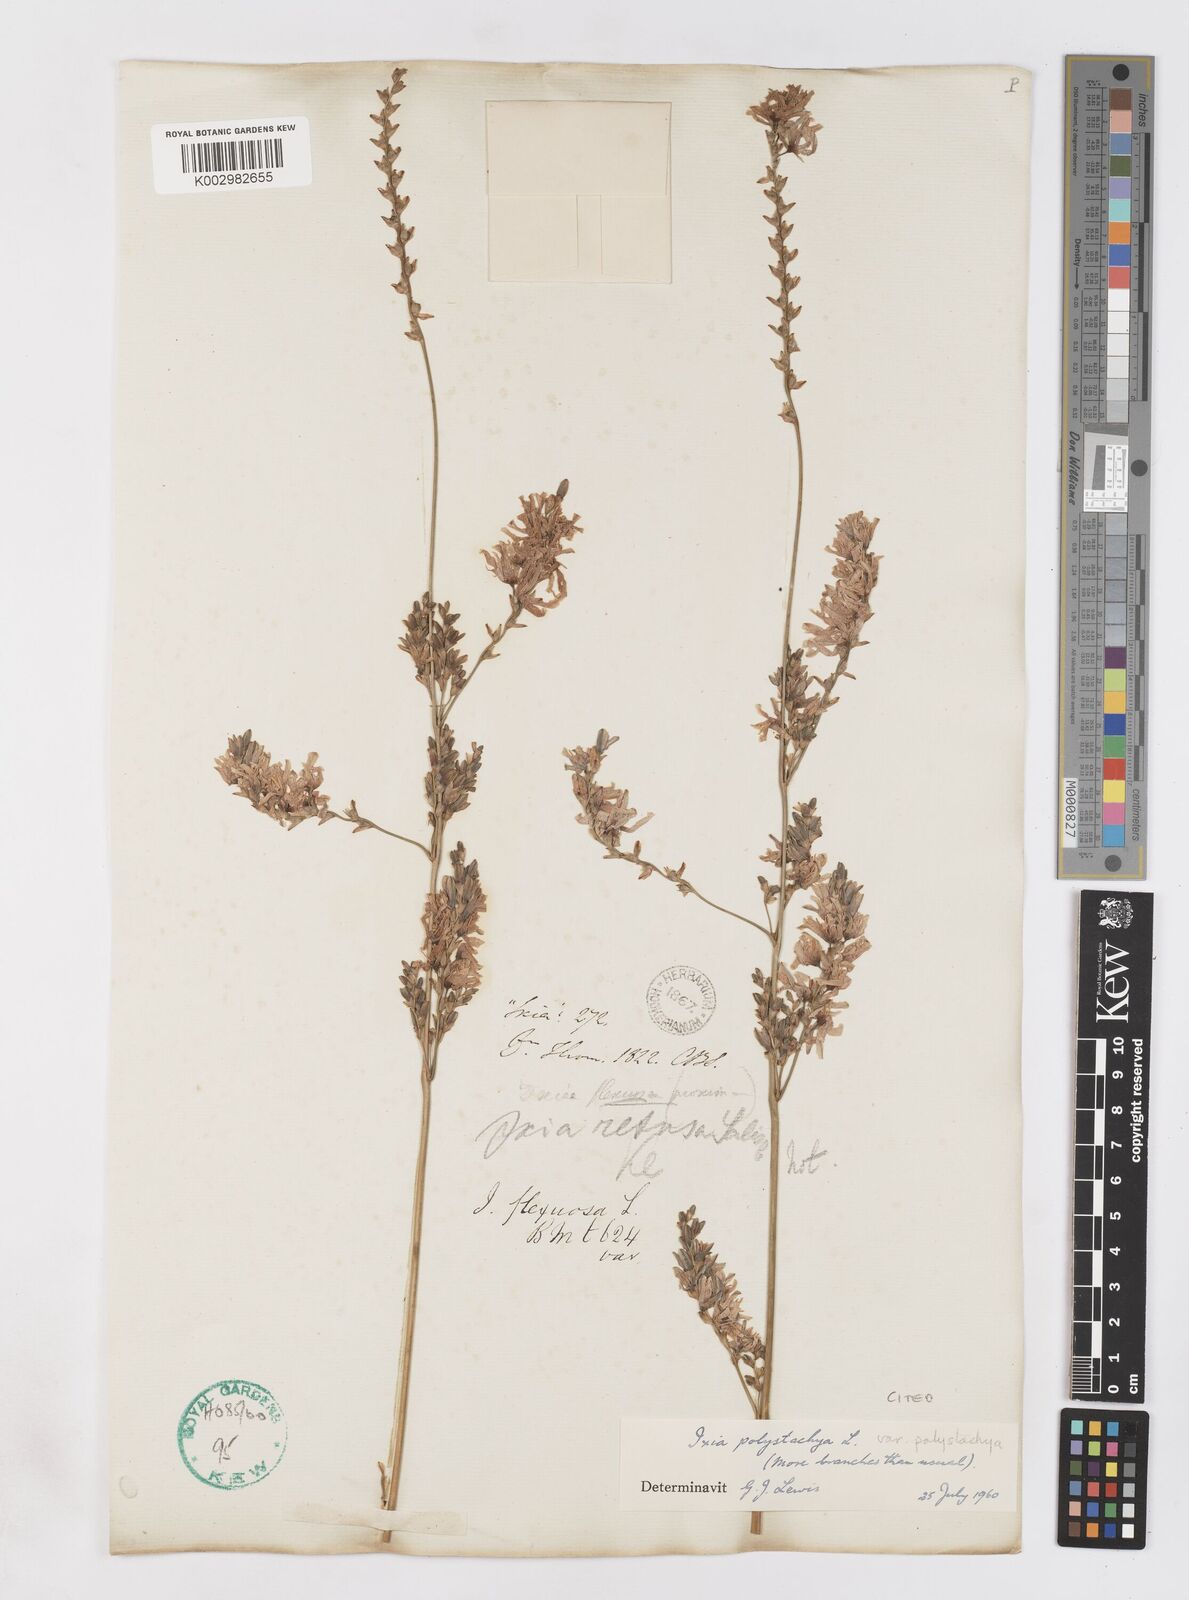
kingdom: Plantae
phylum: Tracheophyta
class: Liliopsida
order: Asparagales
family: Iridaceae
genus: Ixia
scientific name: Ixia polystachya
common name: White-and-yellow-flower cornlily
